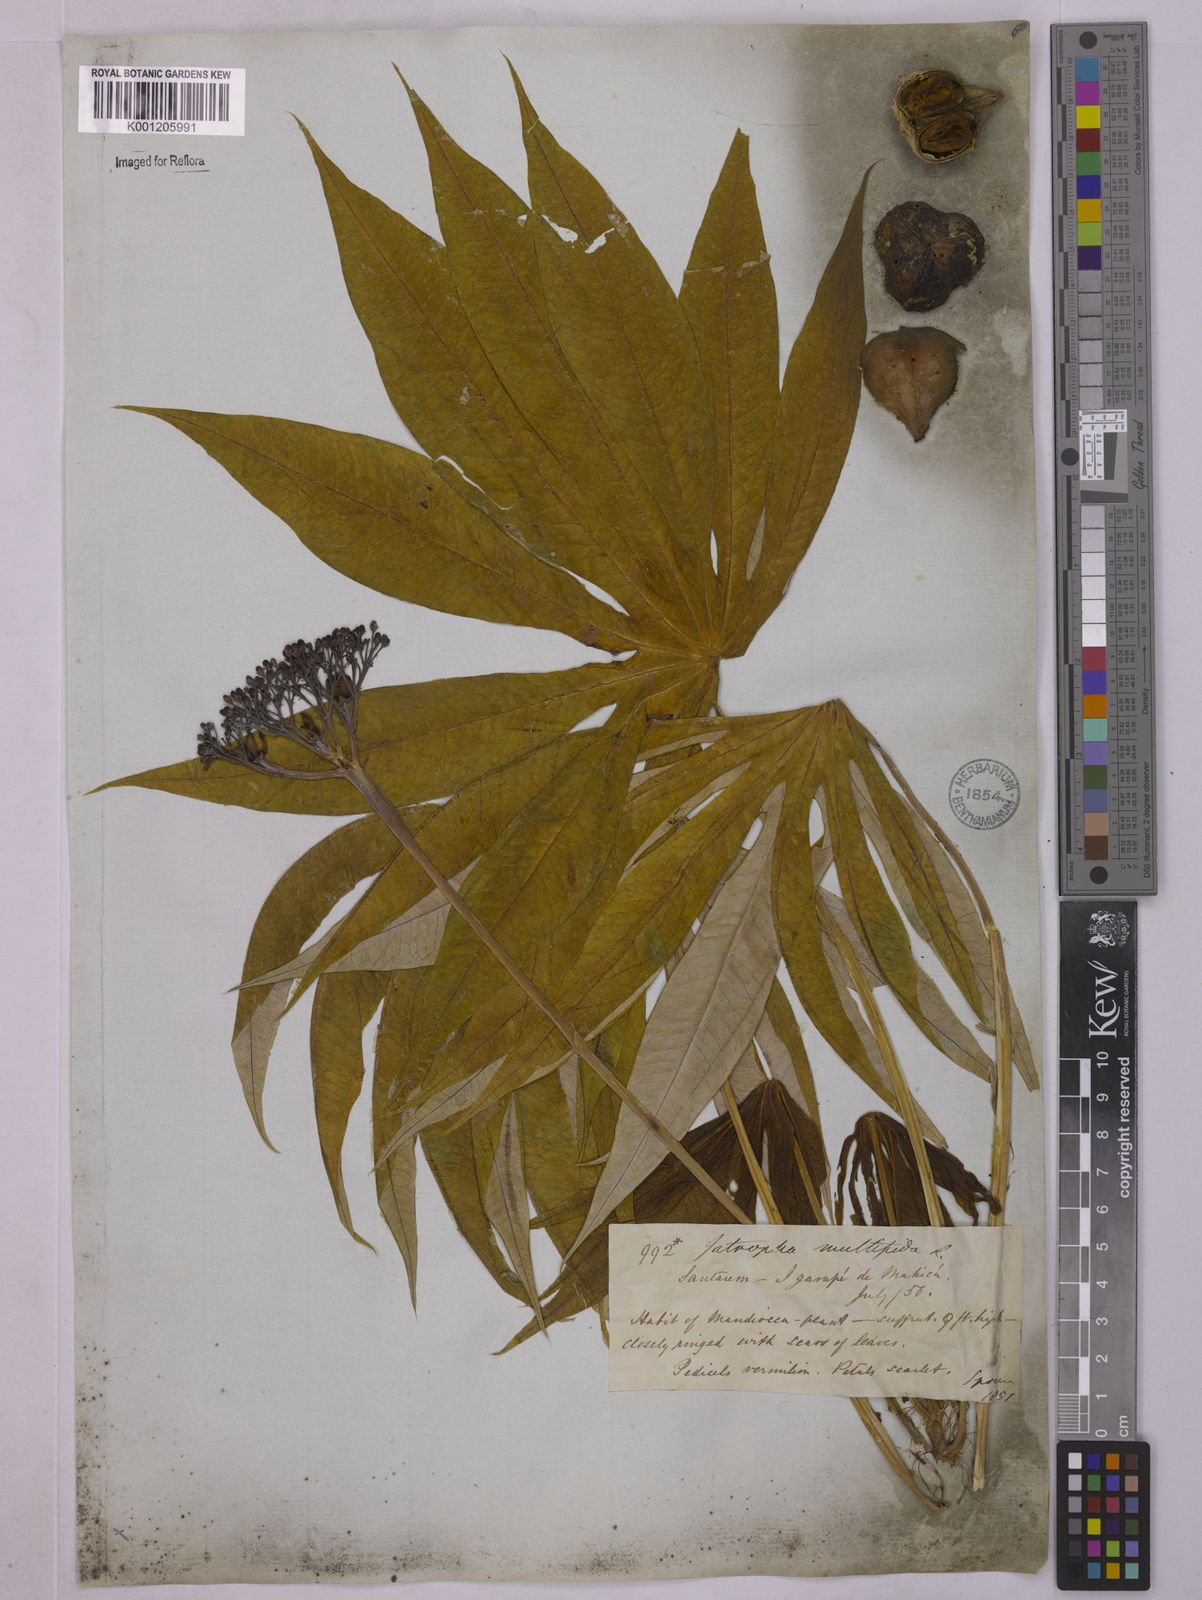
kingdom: Plantae
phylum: Tracheophyta
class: Magnoliopsida
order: Malpighiales
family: Euphorbiaceae
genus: Jatropha
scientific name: Jatropha multifida
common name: Coralbush
